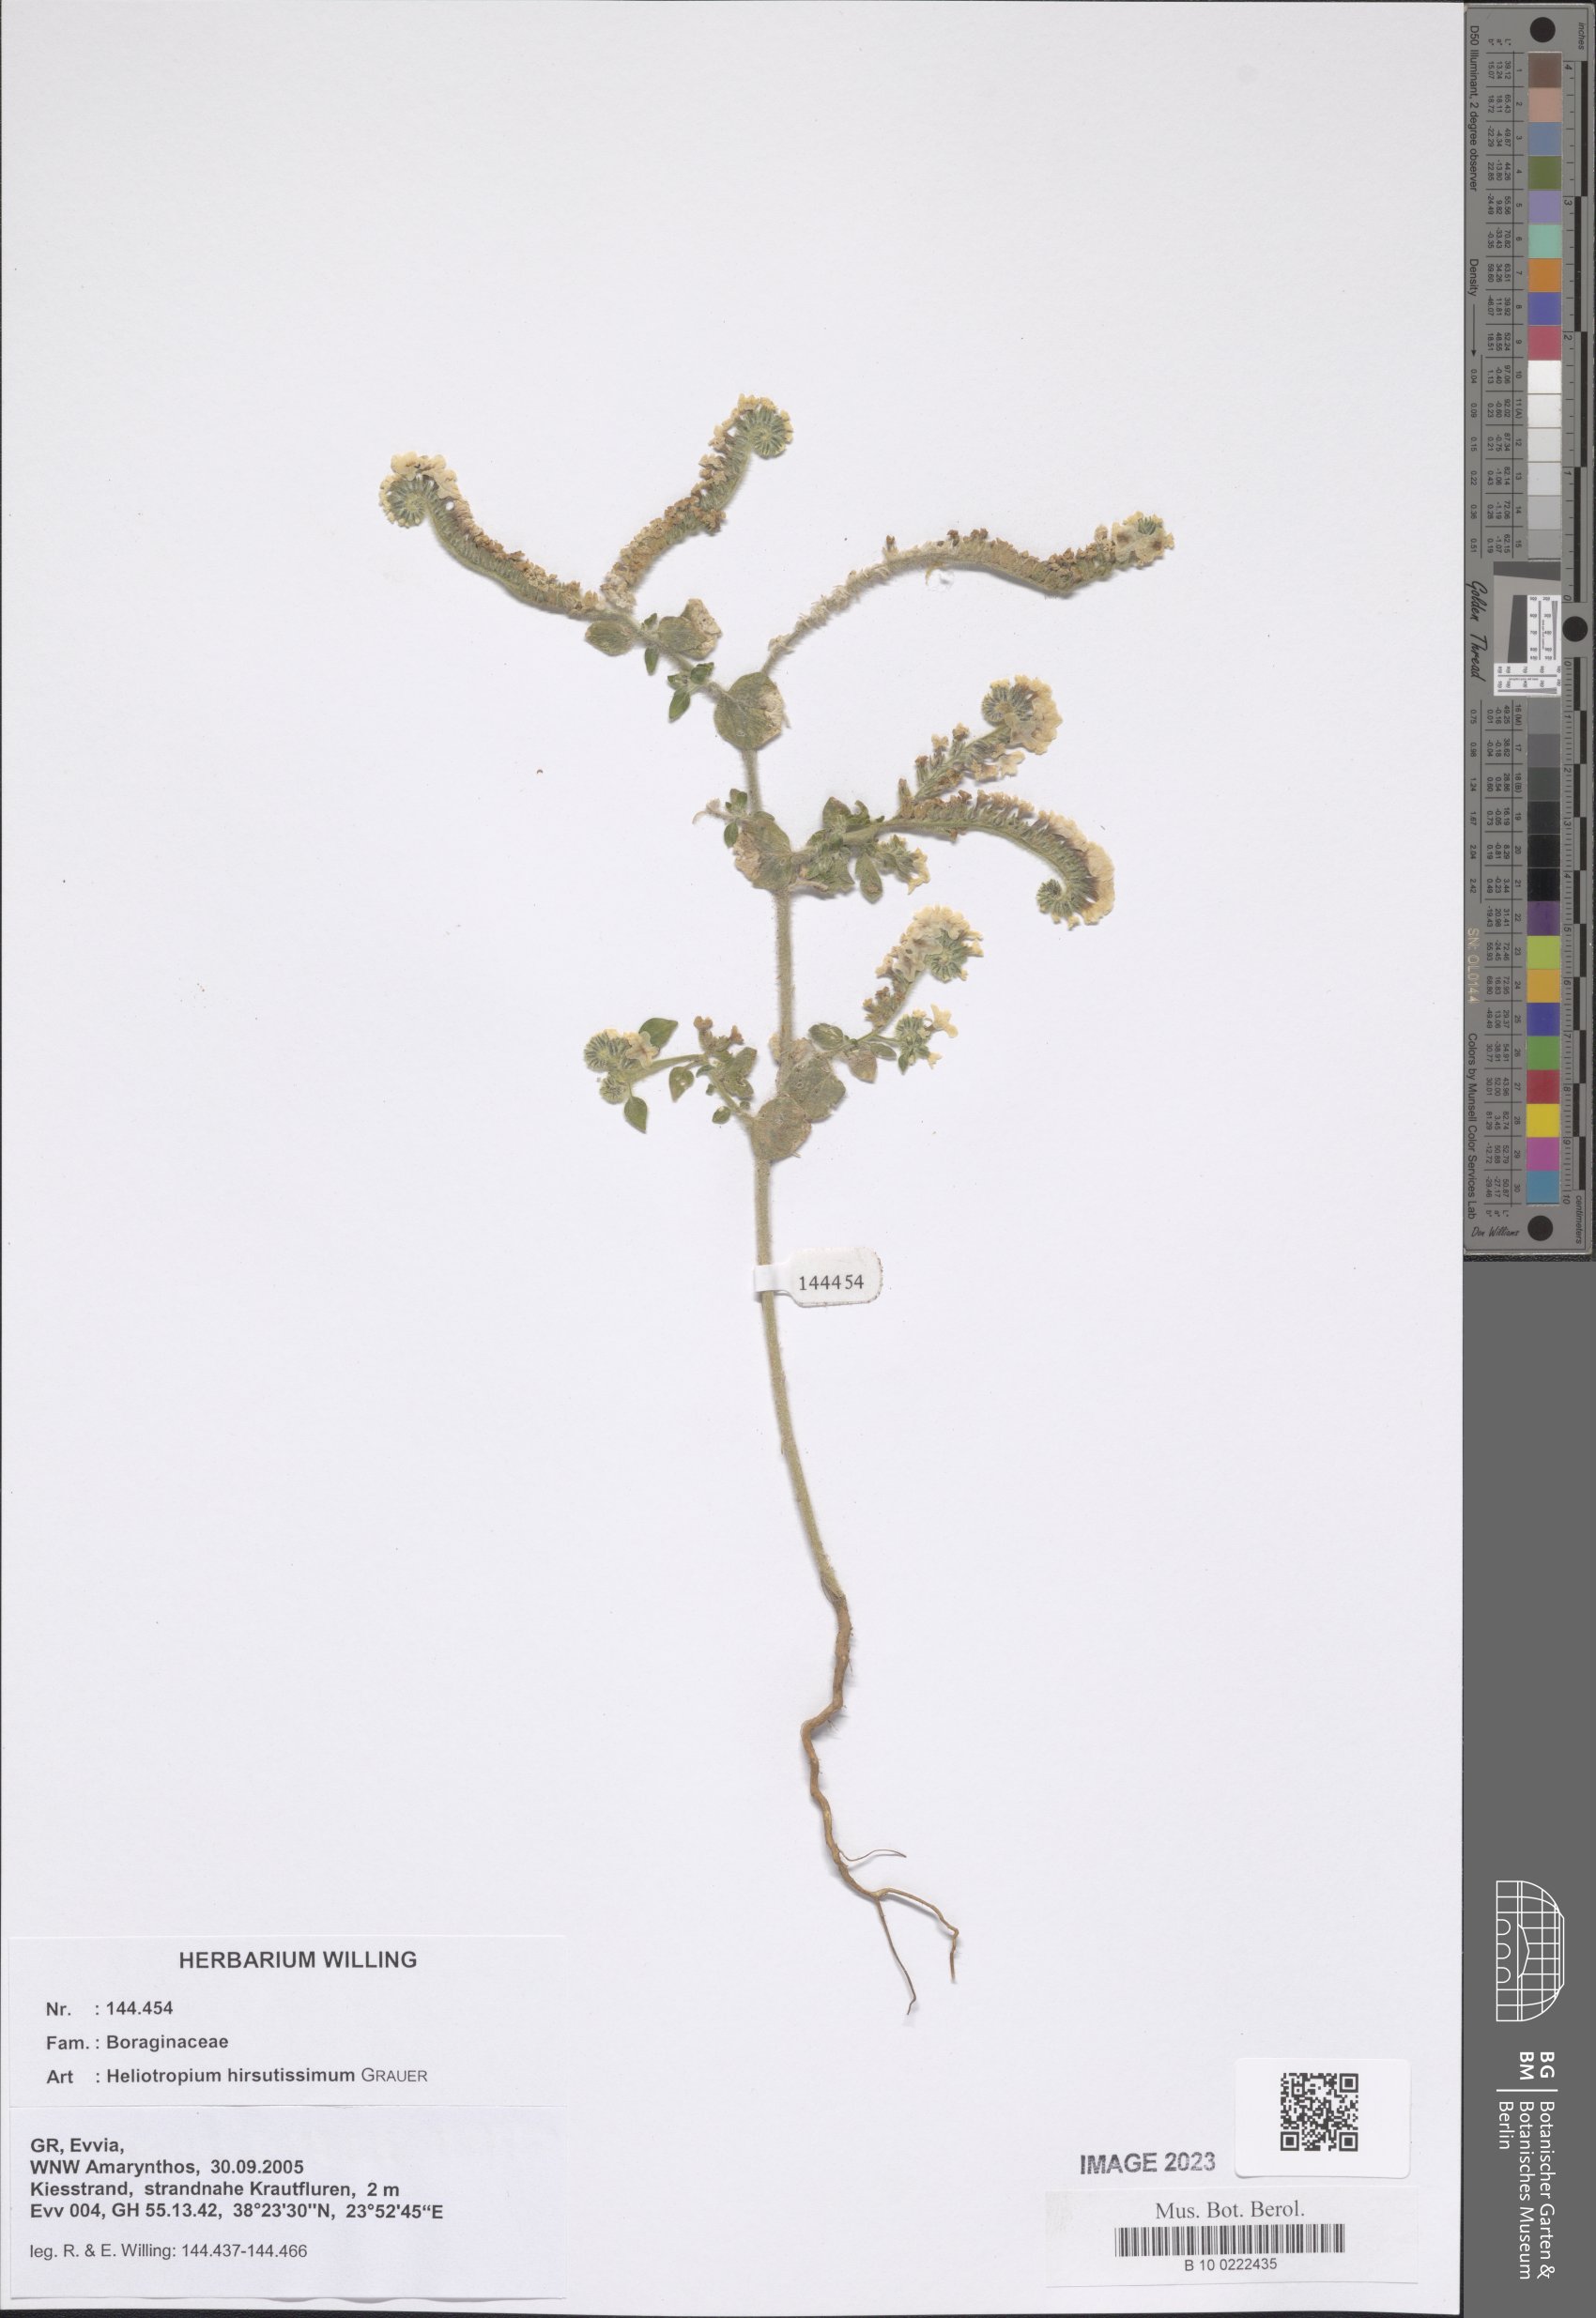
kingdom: Plantae
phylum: Tracheophyta
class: Magnoliopsida
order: Boraginales
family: Heliotropiaceae
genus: Heliotropium
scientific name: Heliotropium hirsutissimum
